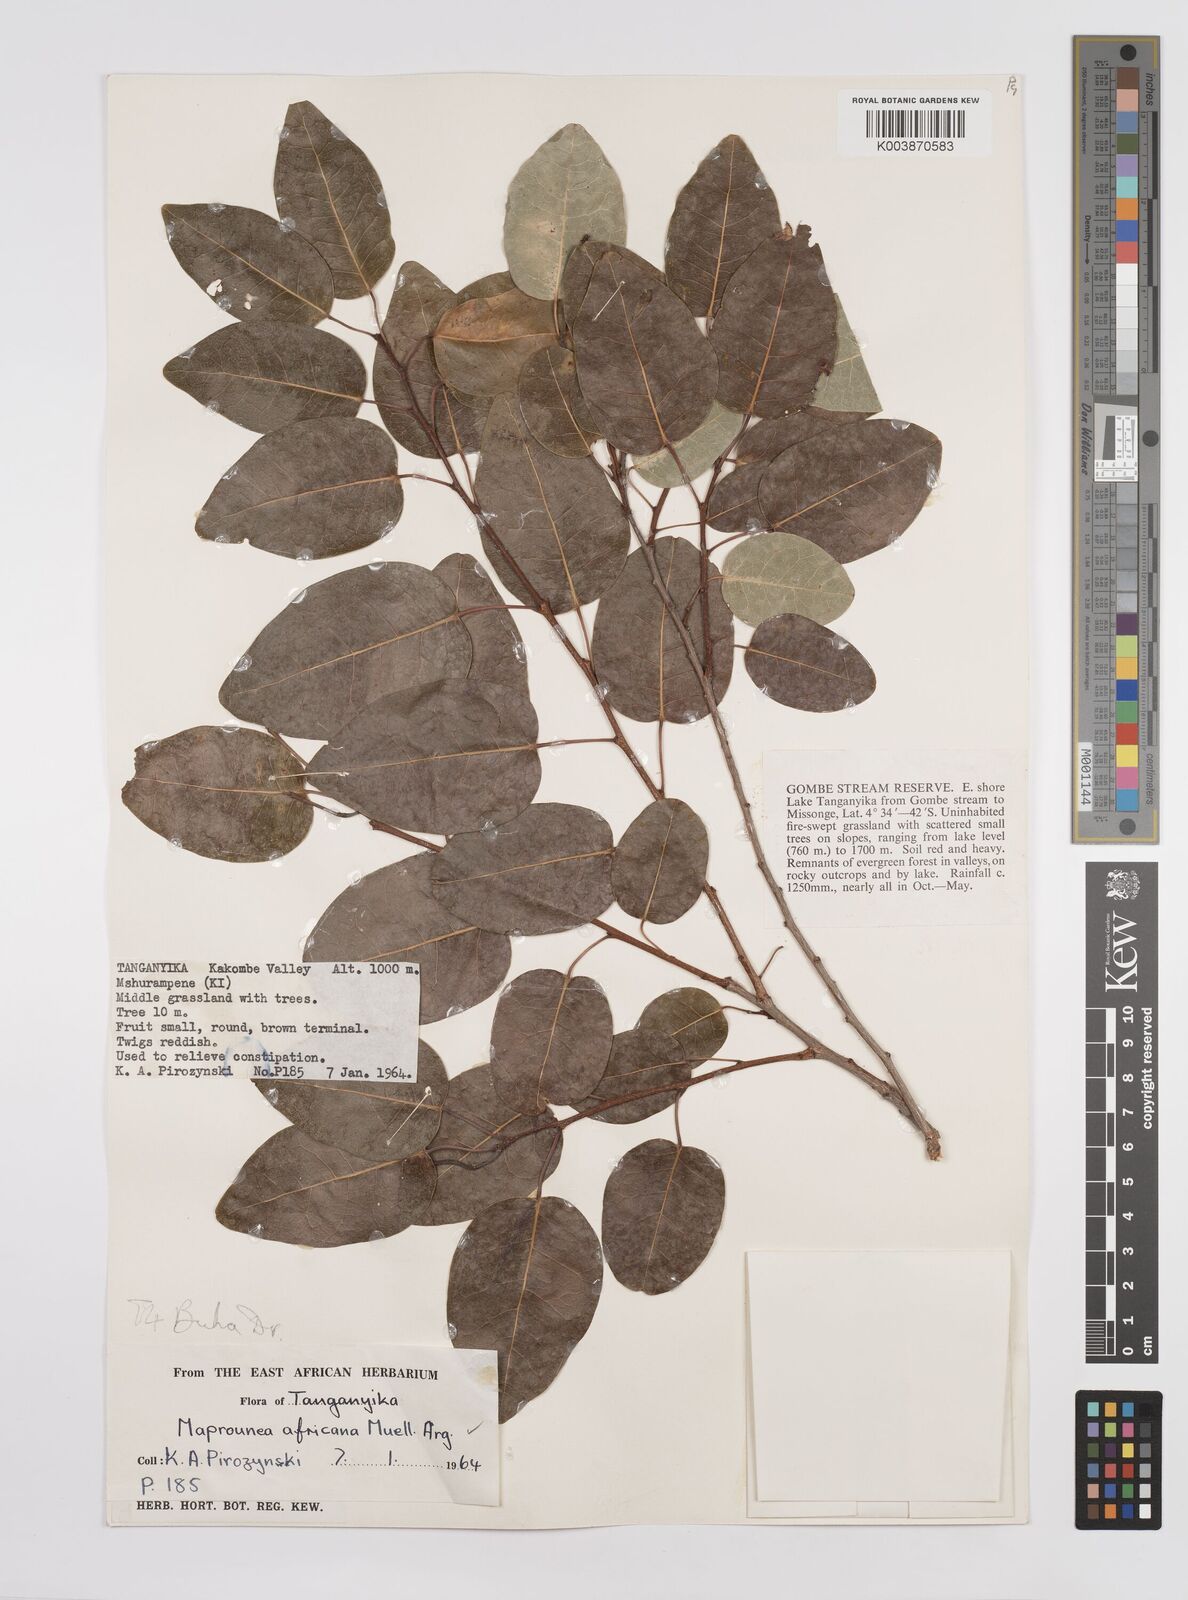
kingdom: Plantae
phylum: Tracheophyta
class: Magnoliopsida
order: Malpighiales
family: Euphorbiaceae
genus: Maprounea
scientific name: Maprounea africana
